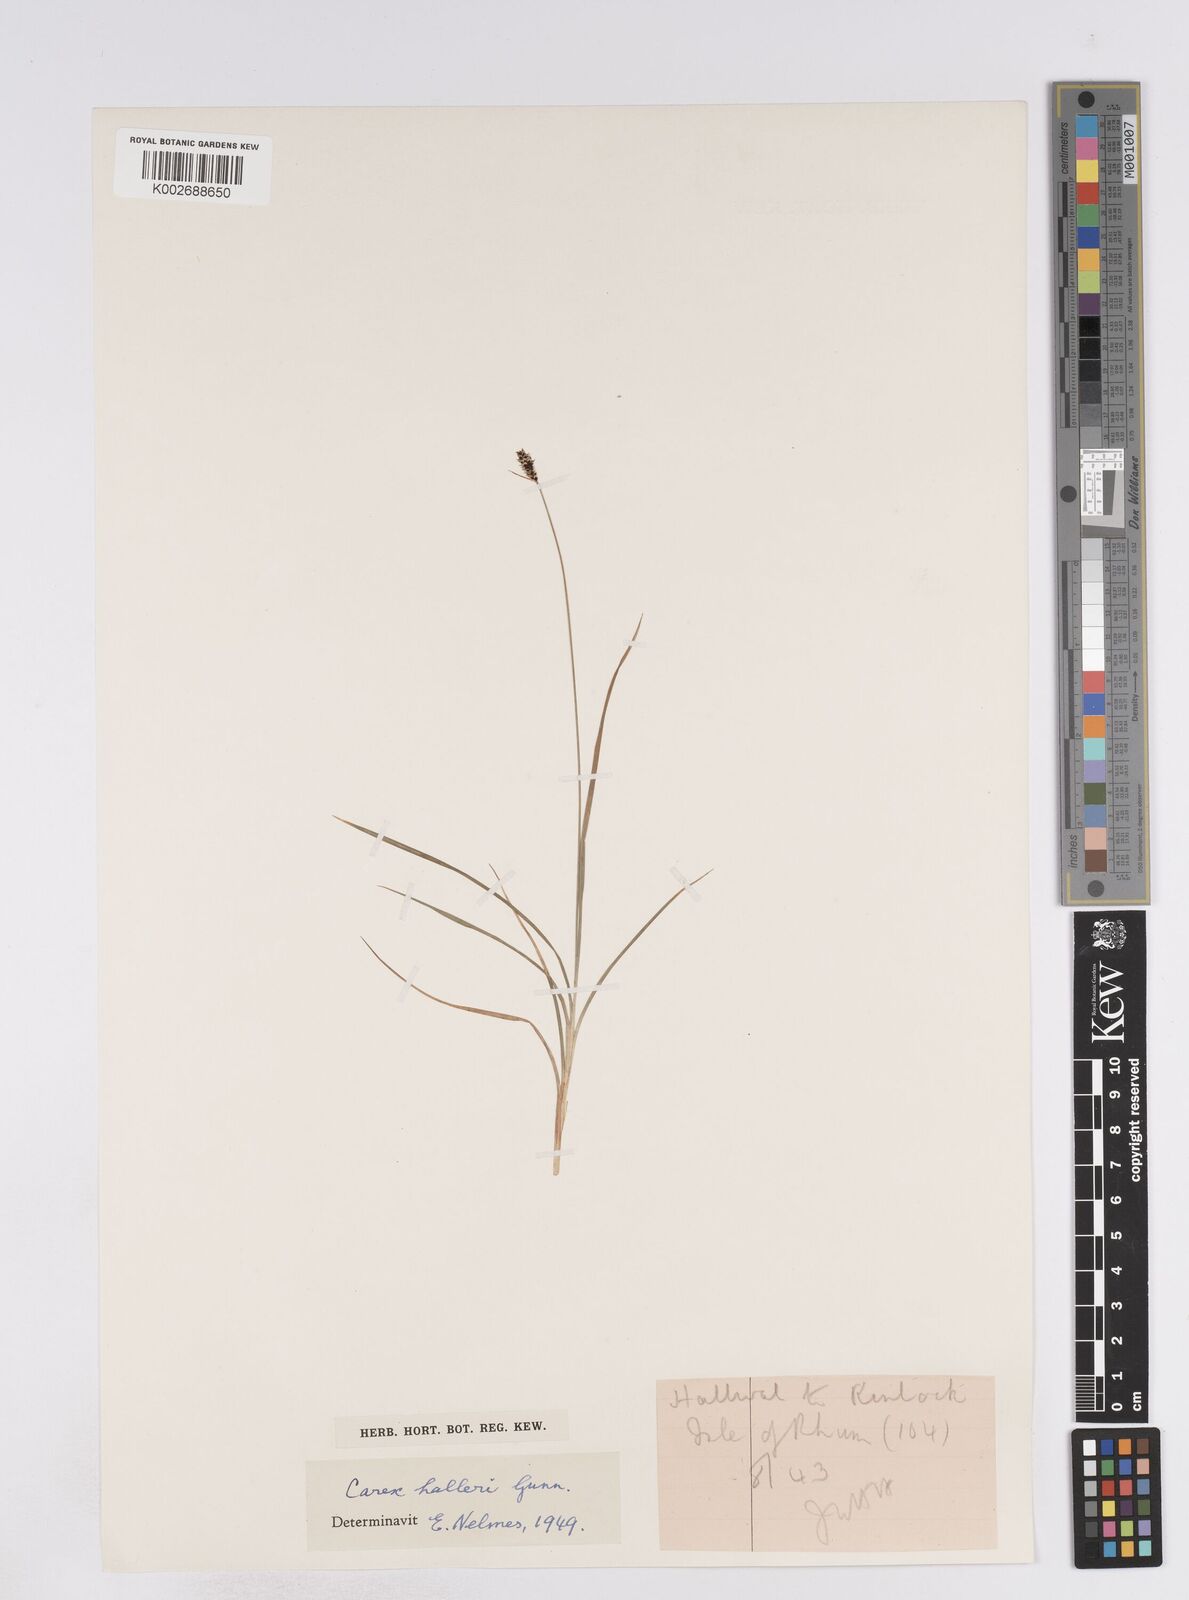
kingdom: Plantae
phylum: Tracheophyta
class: Liliopsida
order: Poales
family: Cyperaceae
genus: Carex
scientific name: Carex norvegica
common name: Close-headed alpine-sedge
